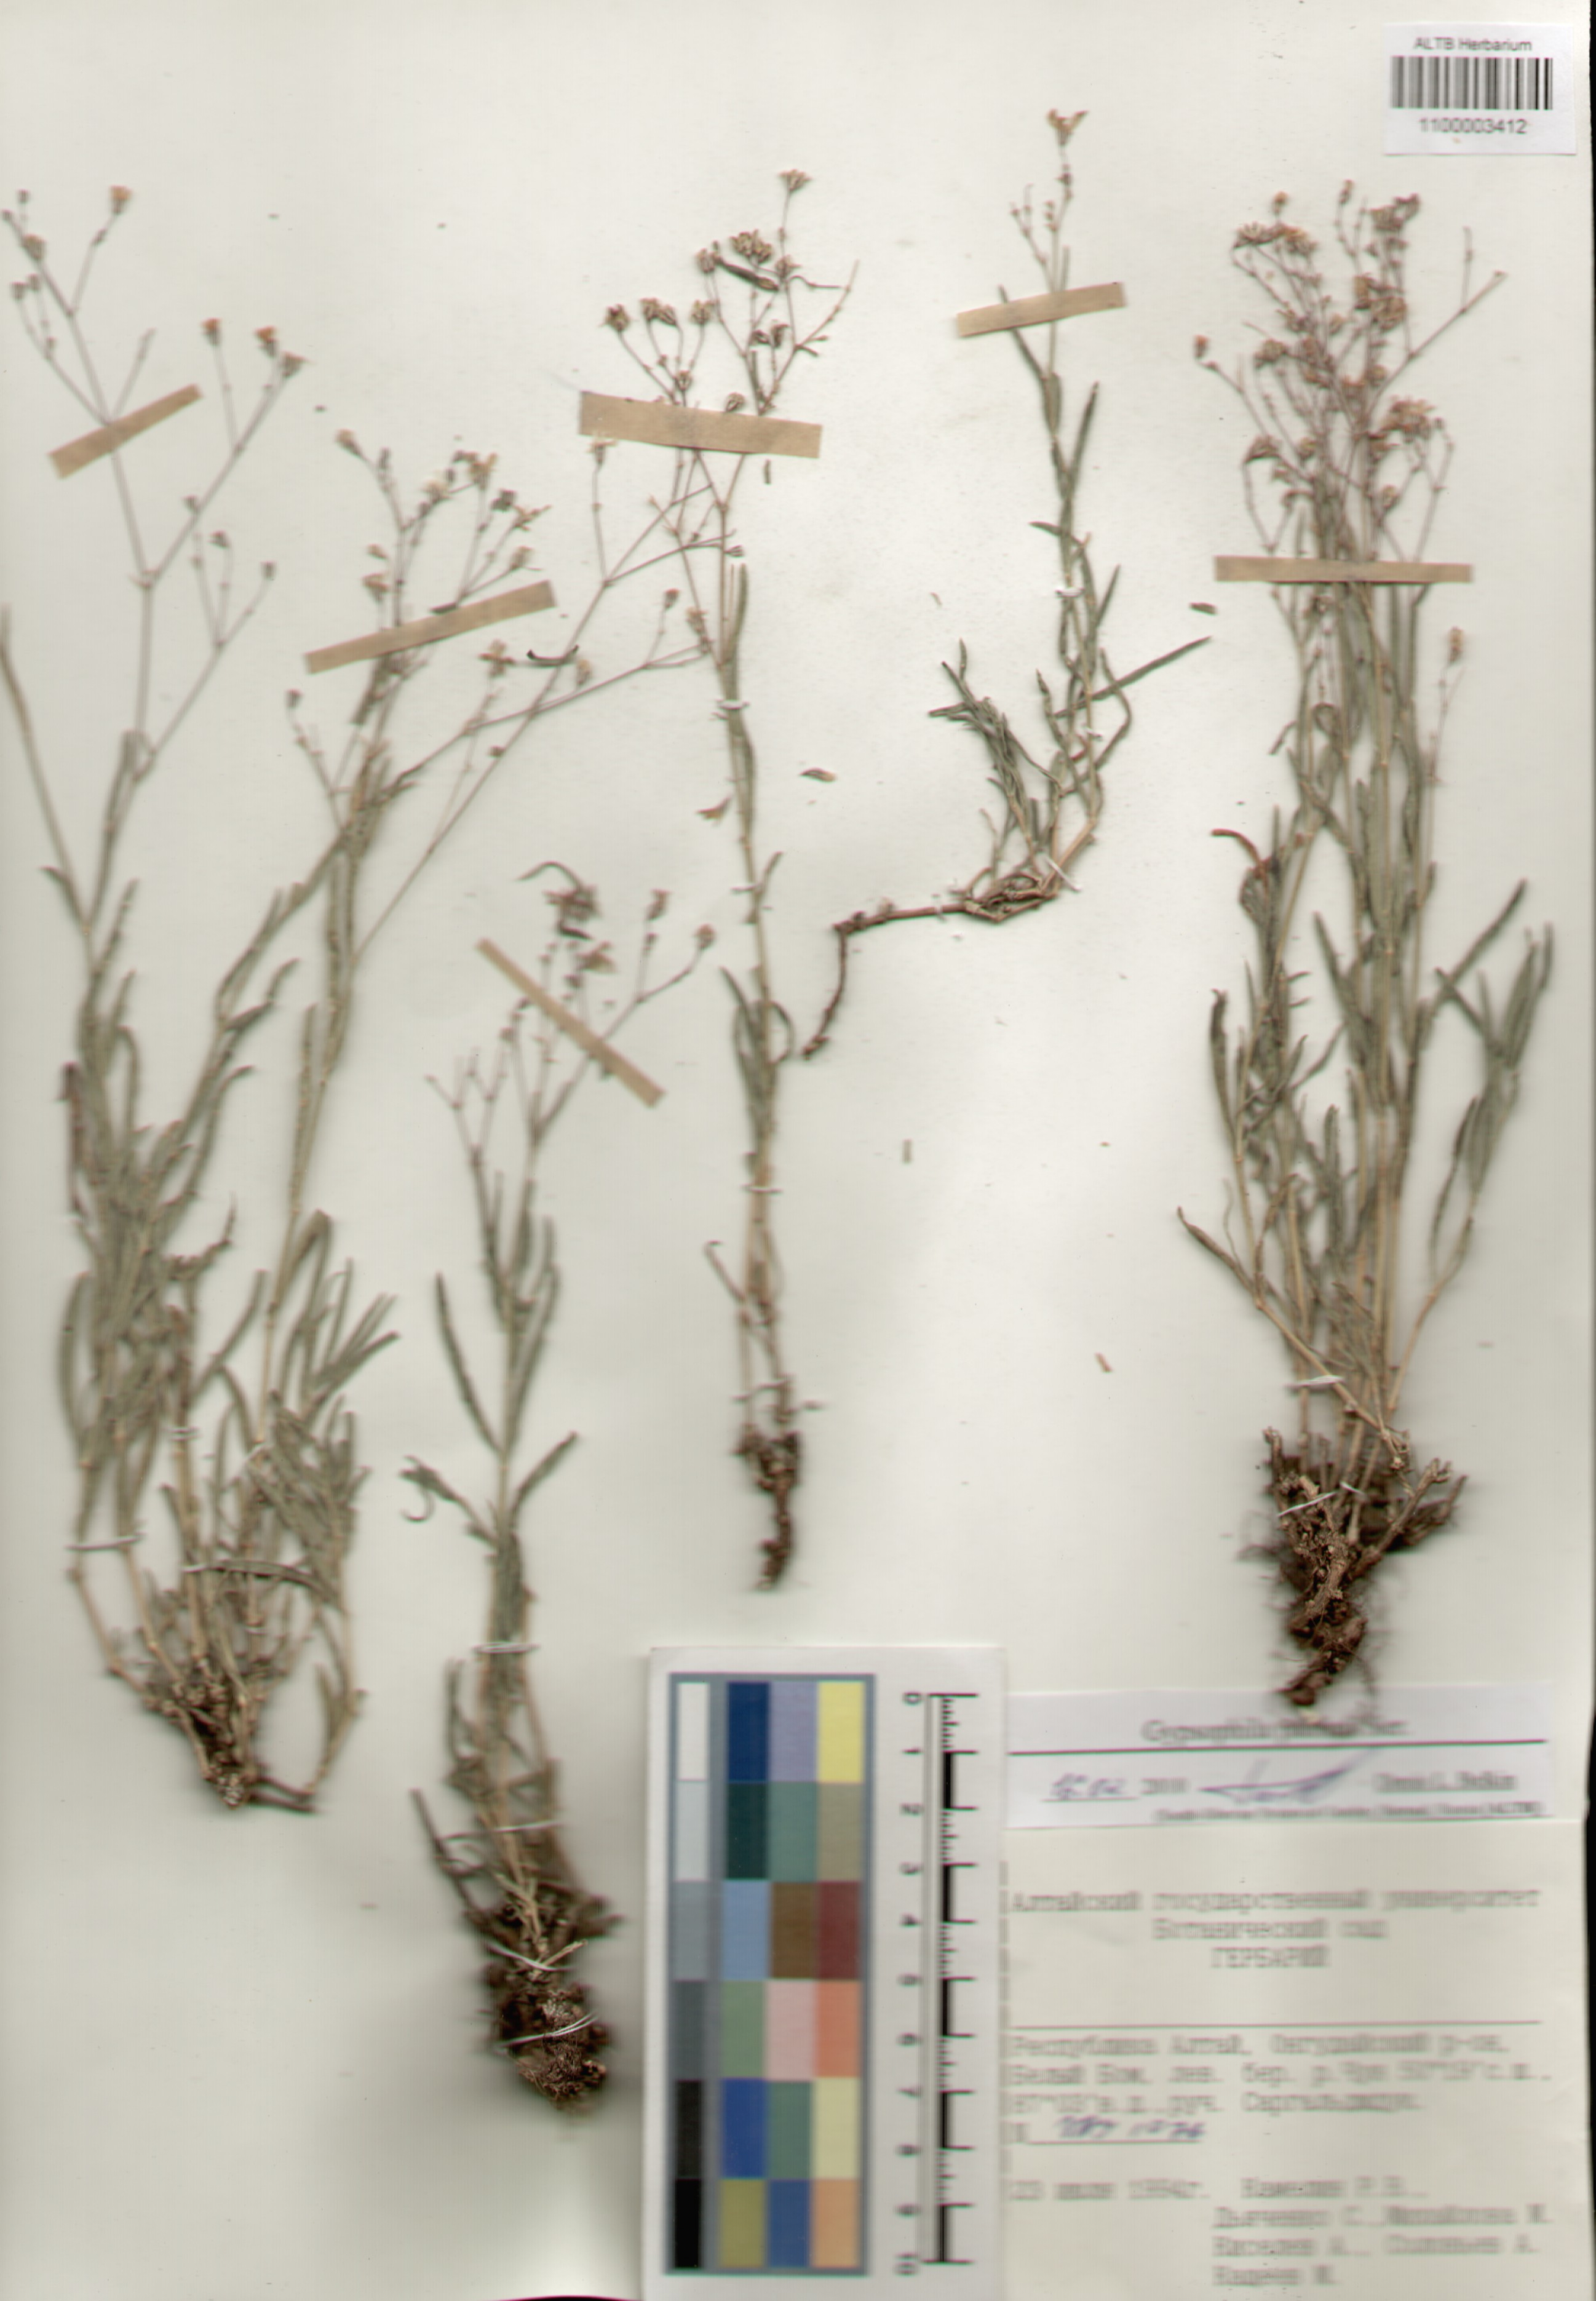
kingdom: Plantae
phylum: Tracheophyta
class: Magnoliopsida
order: Caryophyllales
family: Caryophyllaceae
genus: Gypsophila
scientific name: Gypsophila patrinii
